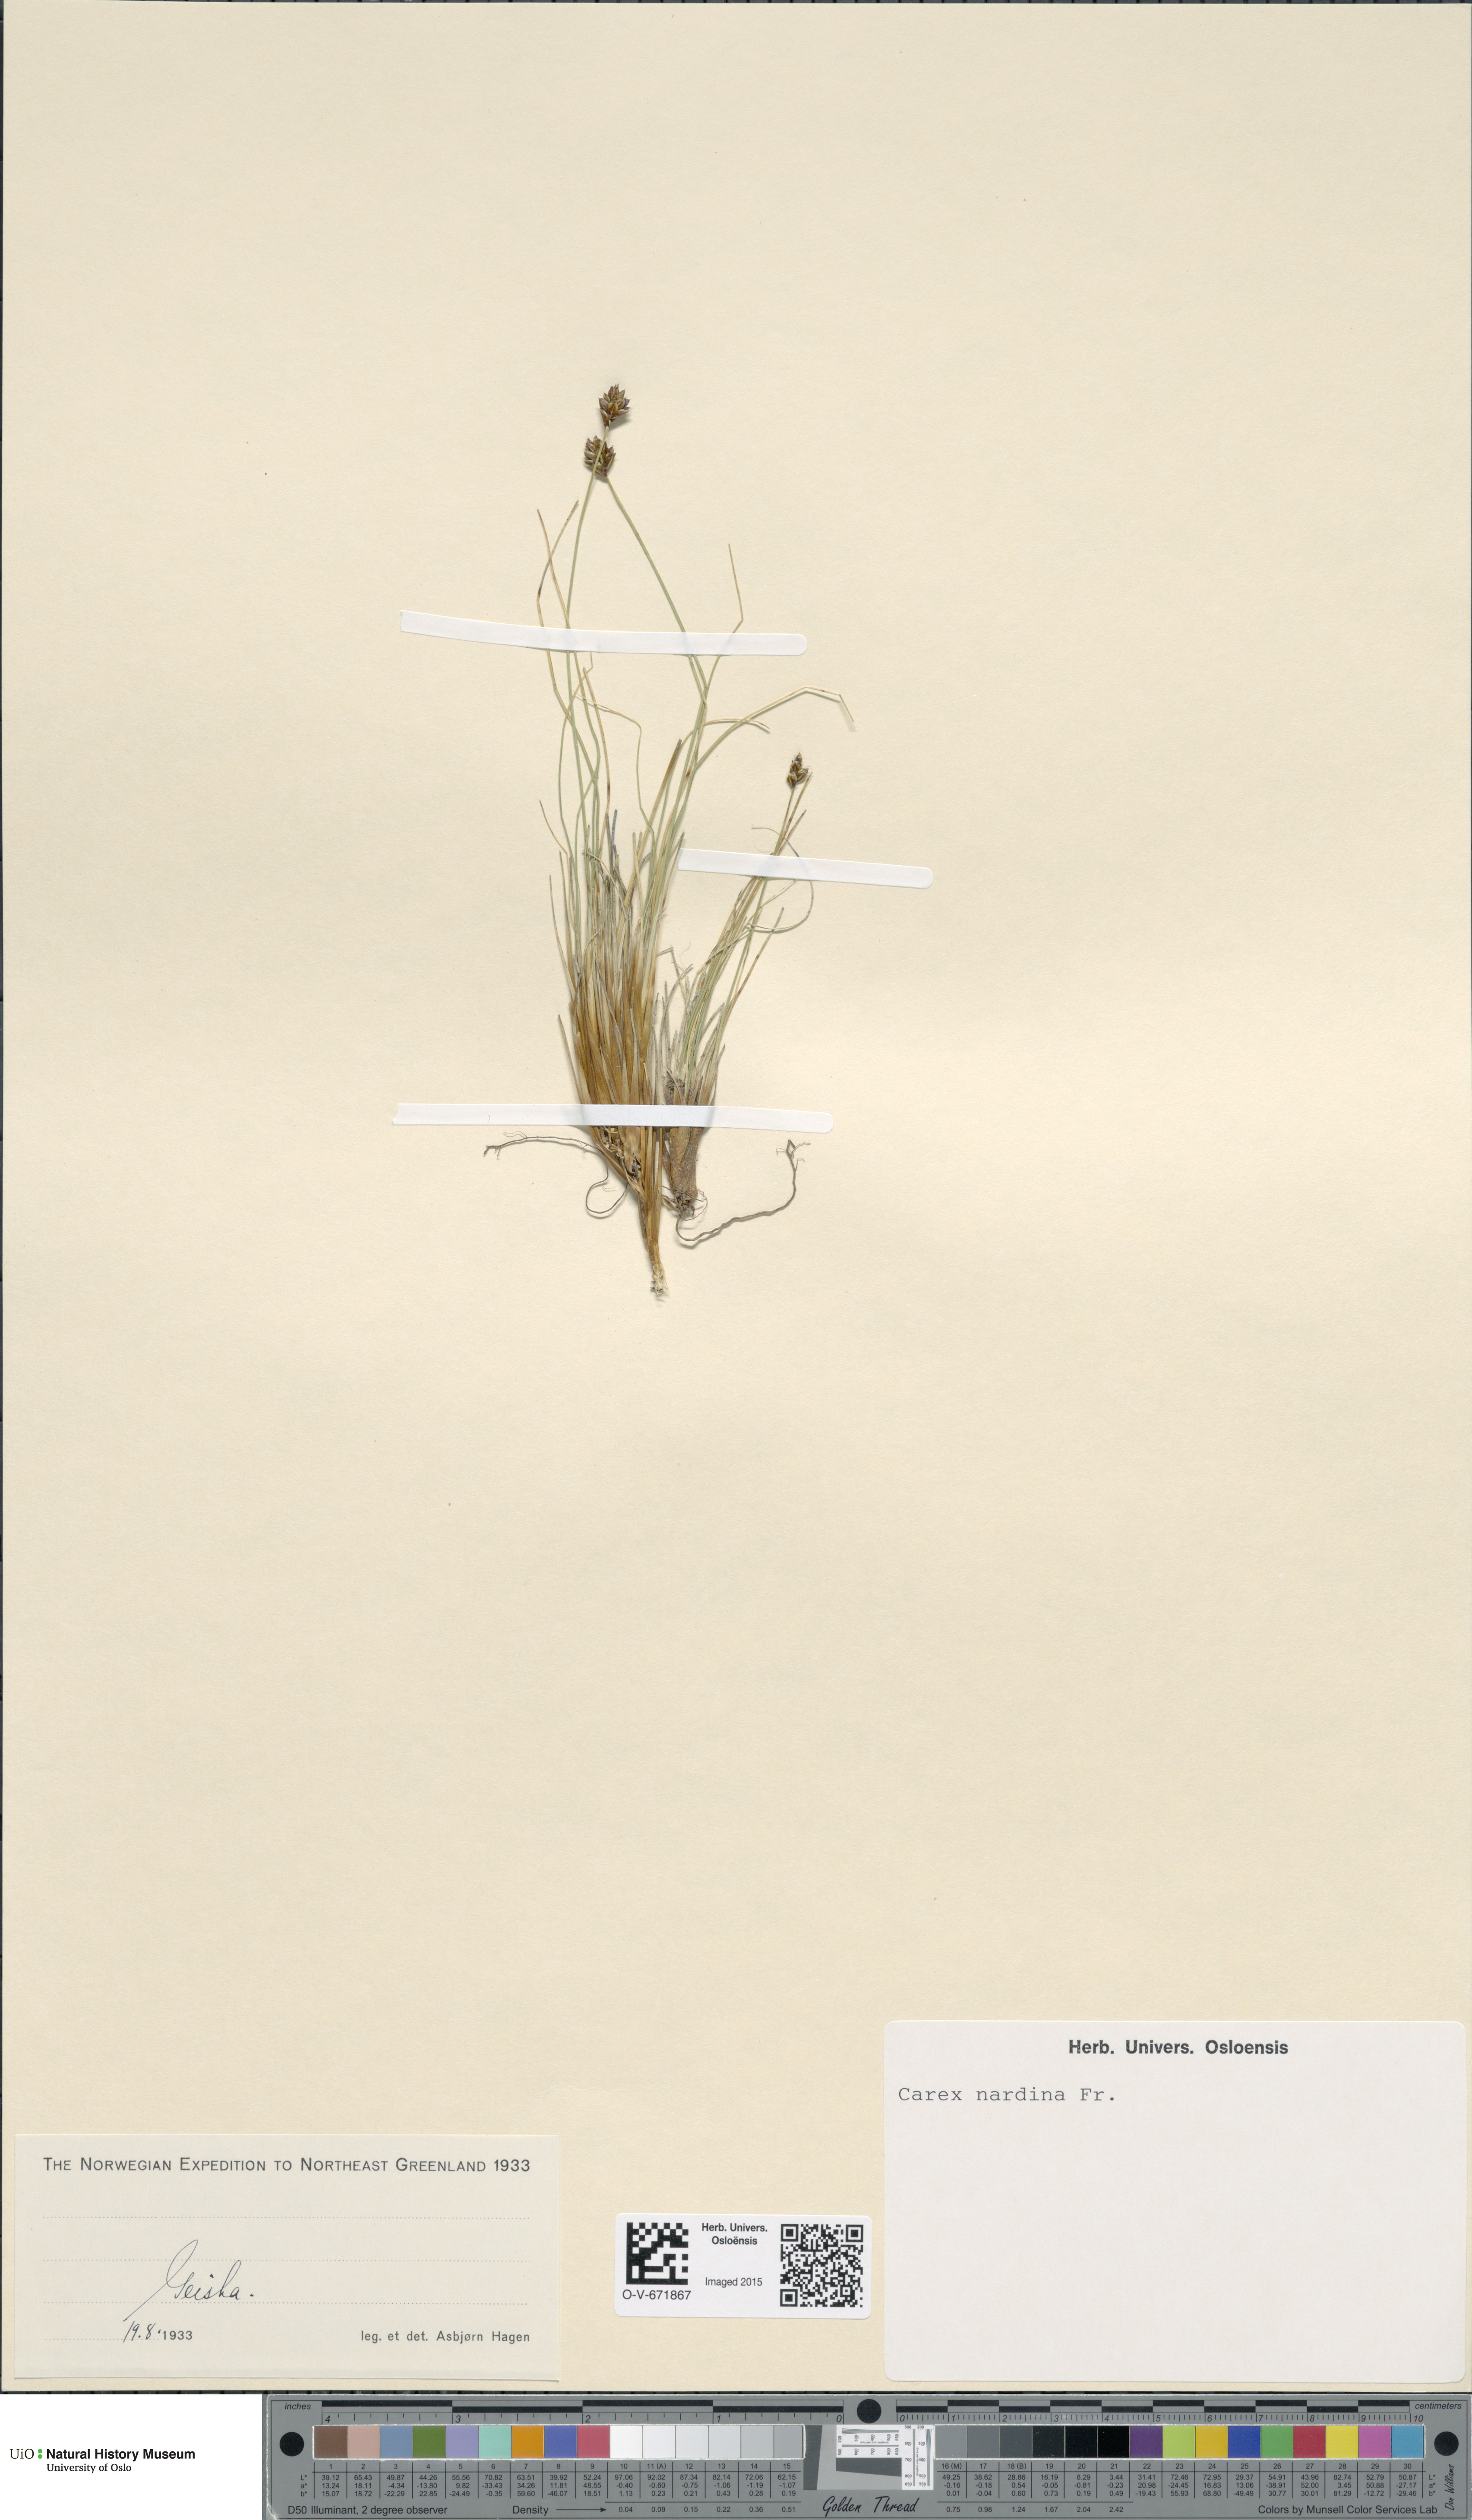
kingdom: Plantae
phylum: Tracheophyta
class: Liliopsida
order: Poales
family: Cyperaceae
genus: Carex
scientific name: Carex nardina
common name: Nard sedge
